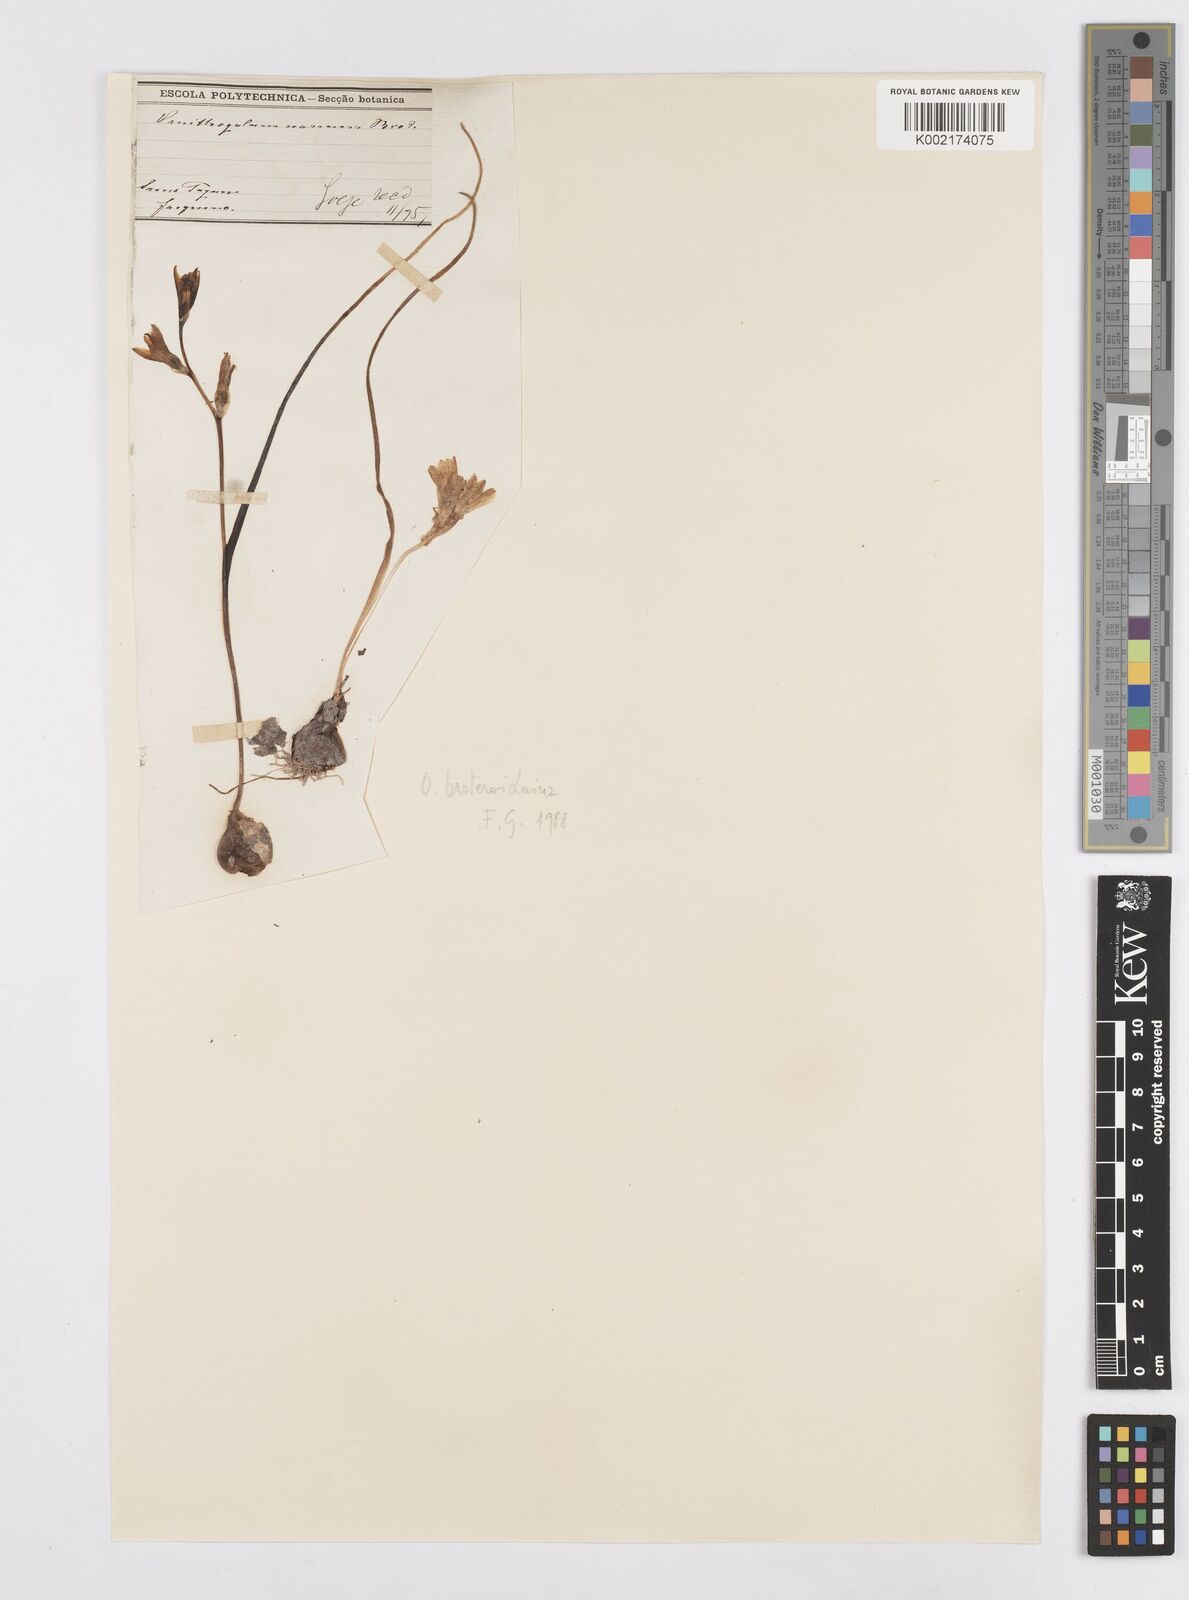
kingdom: Plantae
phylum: Tracheophyta
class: Liliopsida
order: Asparagales
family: Asparagaceae
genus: Ornithogalum
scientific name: Ornithogalum broteroi
